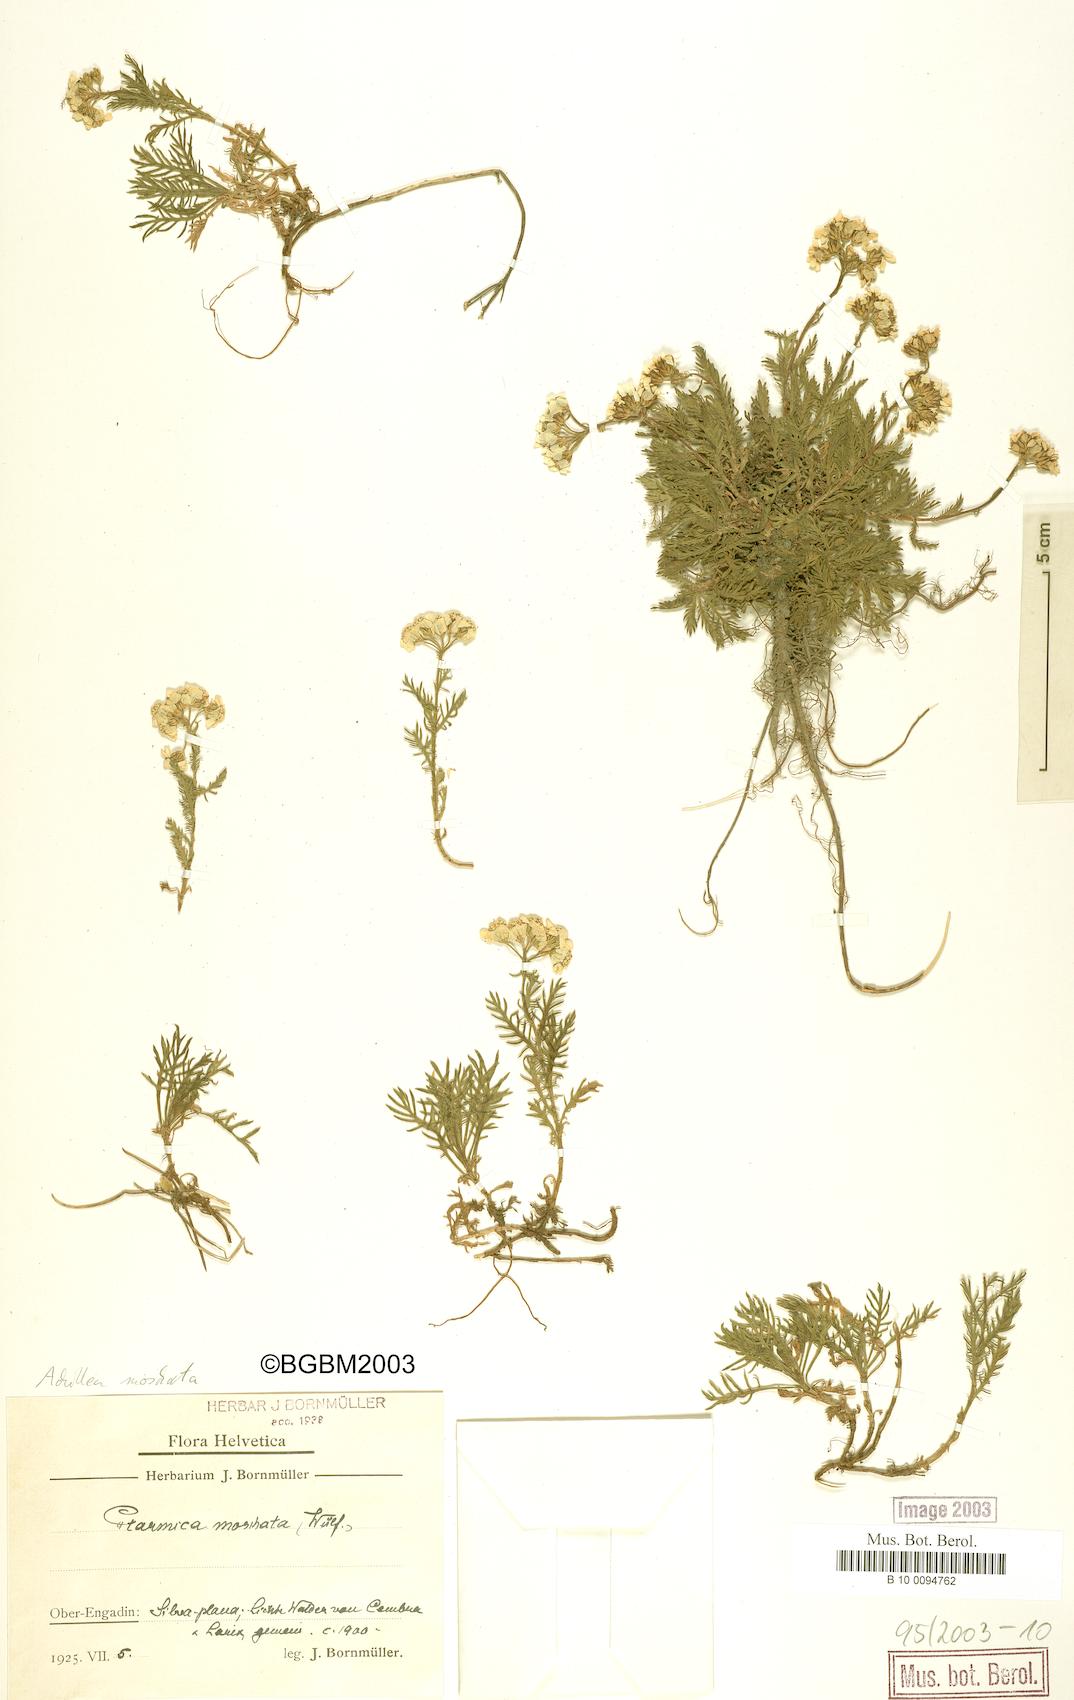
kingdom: Plantae
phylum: Tracheophyta
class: Magnoliopsida
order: Asterales
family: Asteraceae
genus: Achillea
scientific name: Achillea erba-rotta
